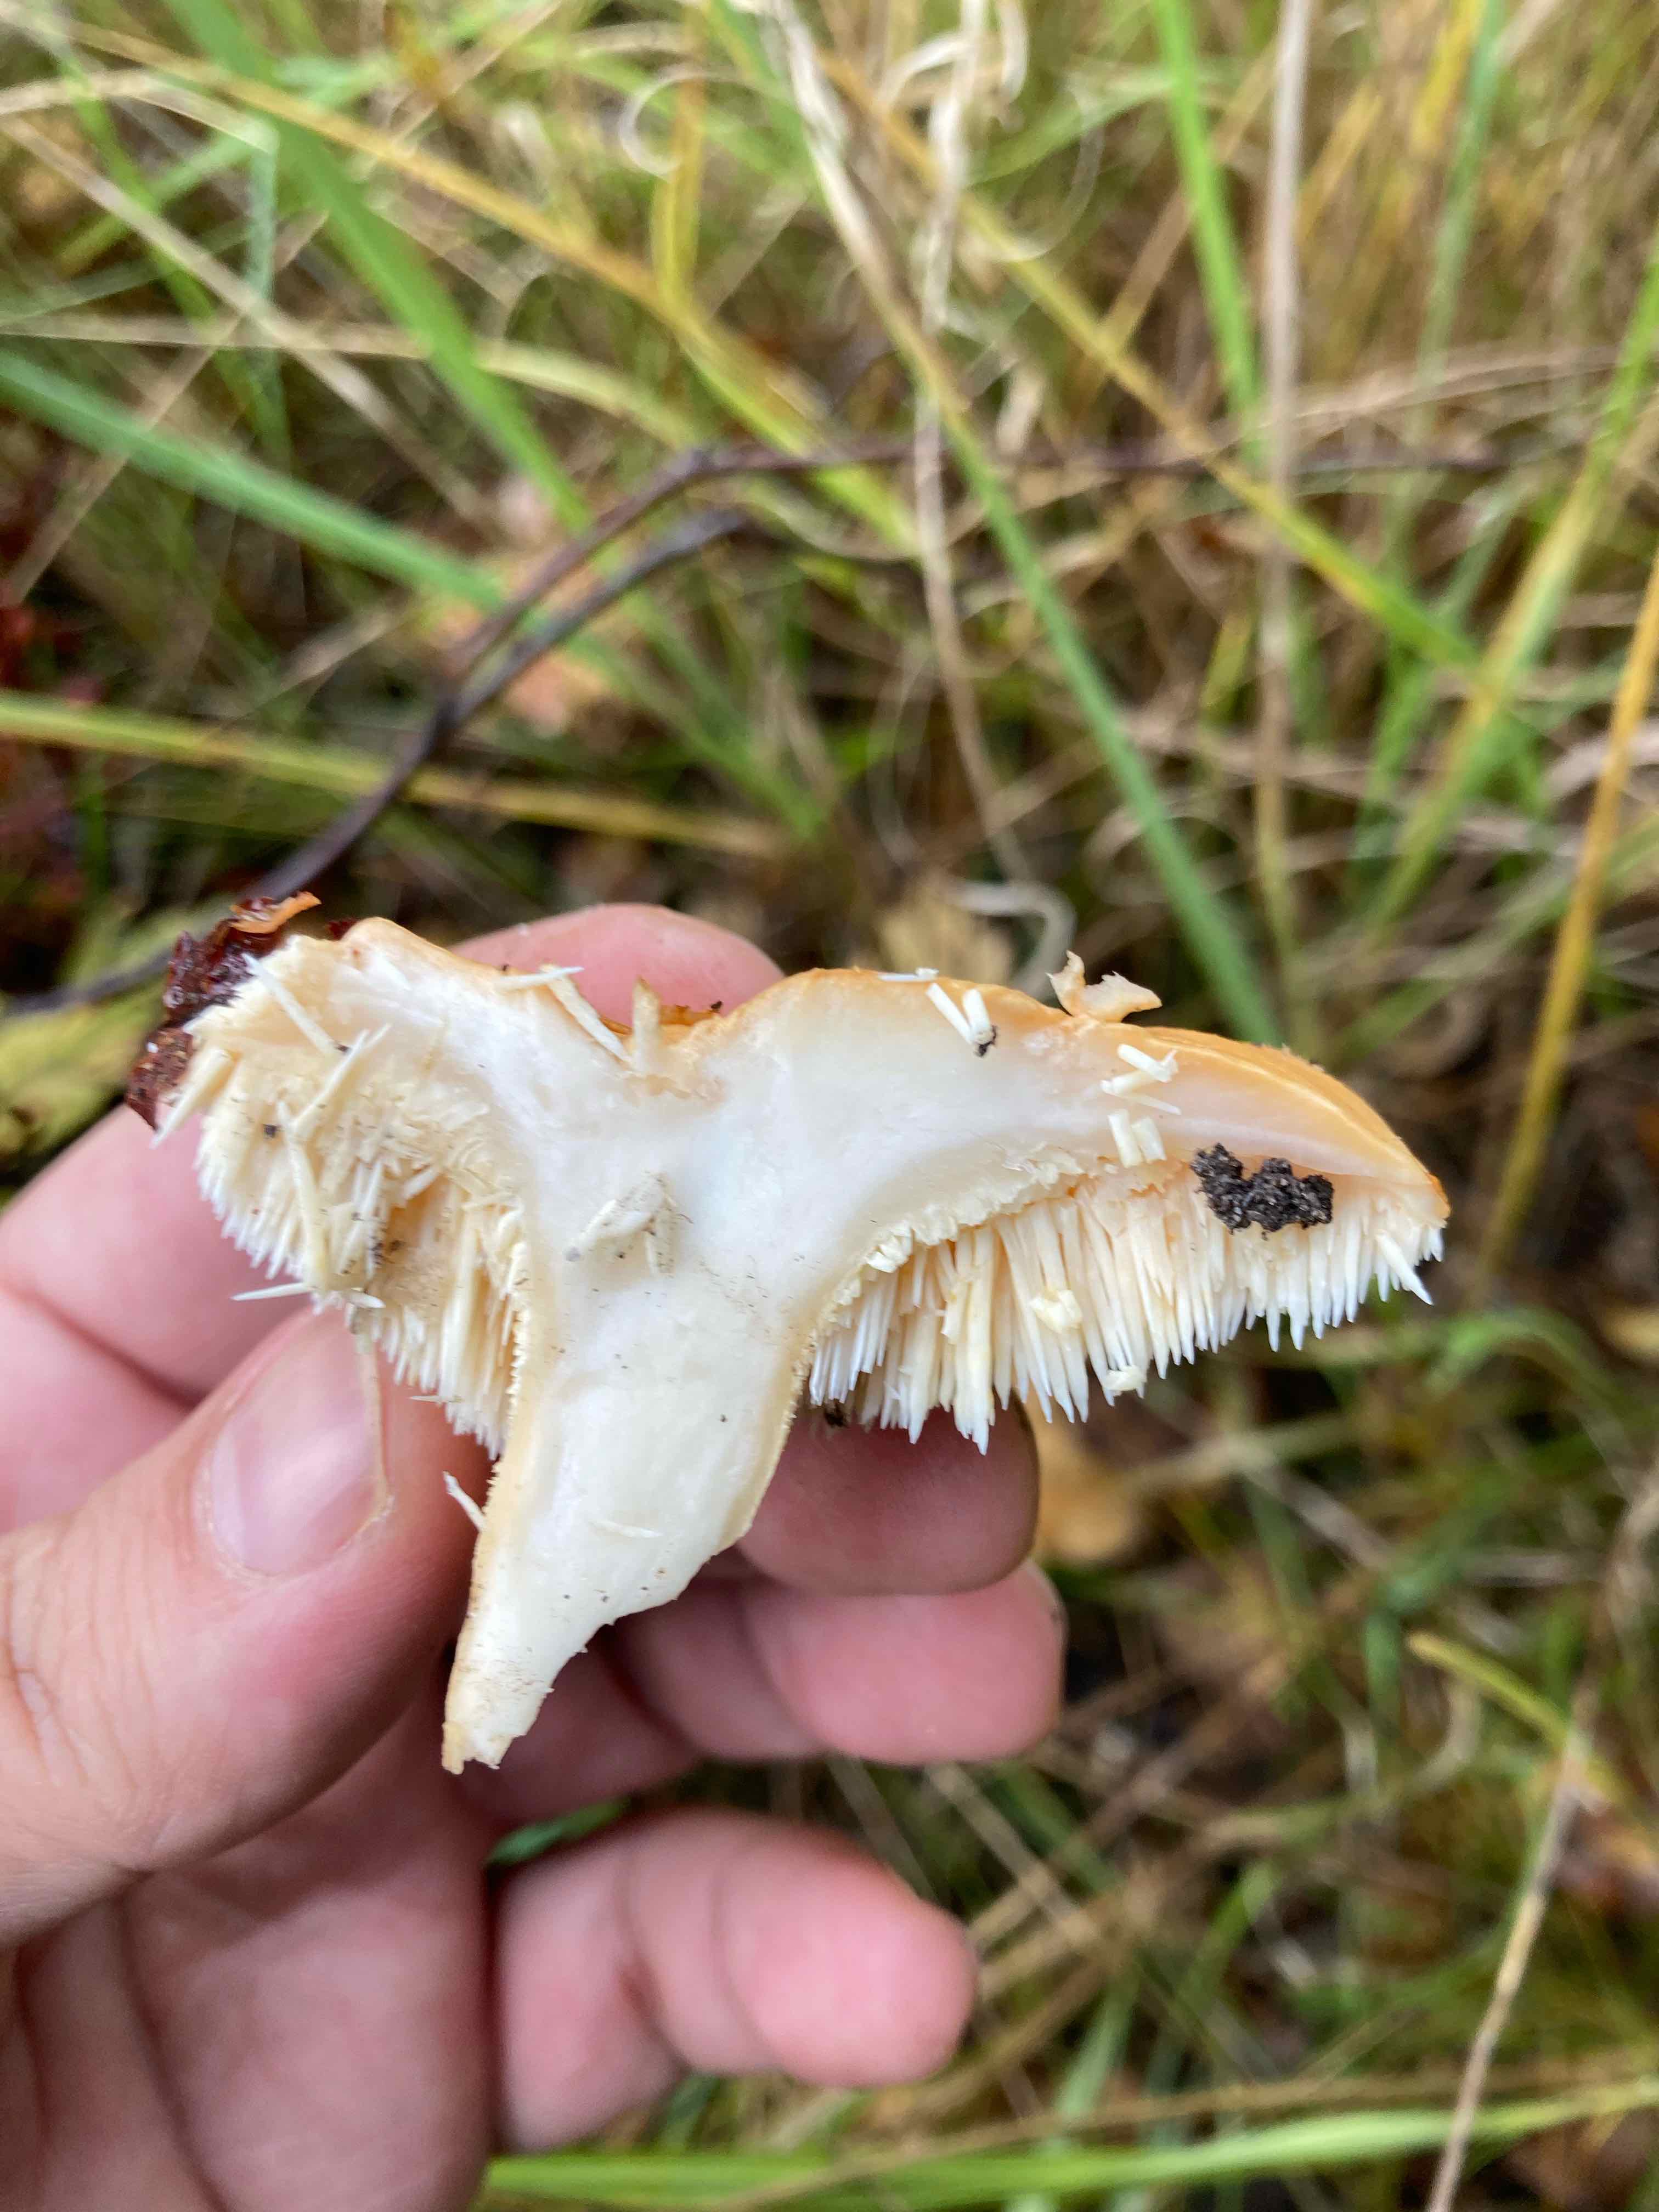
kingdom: Fungi
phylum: Basidiomycota
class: Agaricomycetes
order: Cantharellales
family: Hydnaceae
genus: Hydnum
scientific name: Hydnum
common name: pigsvamp
